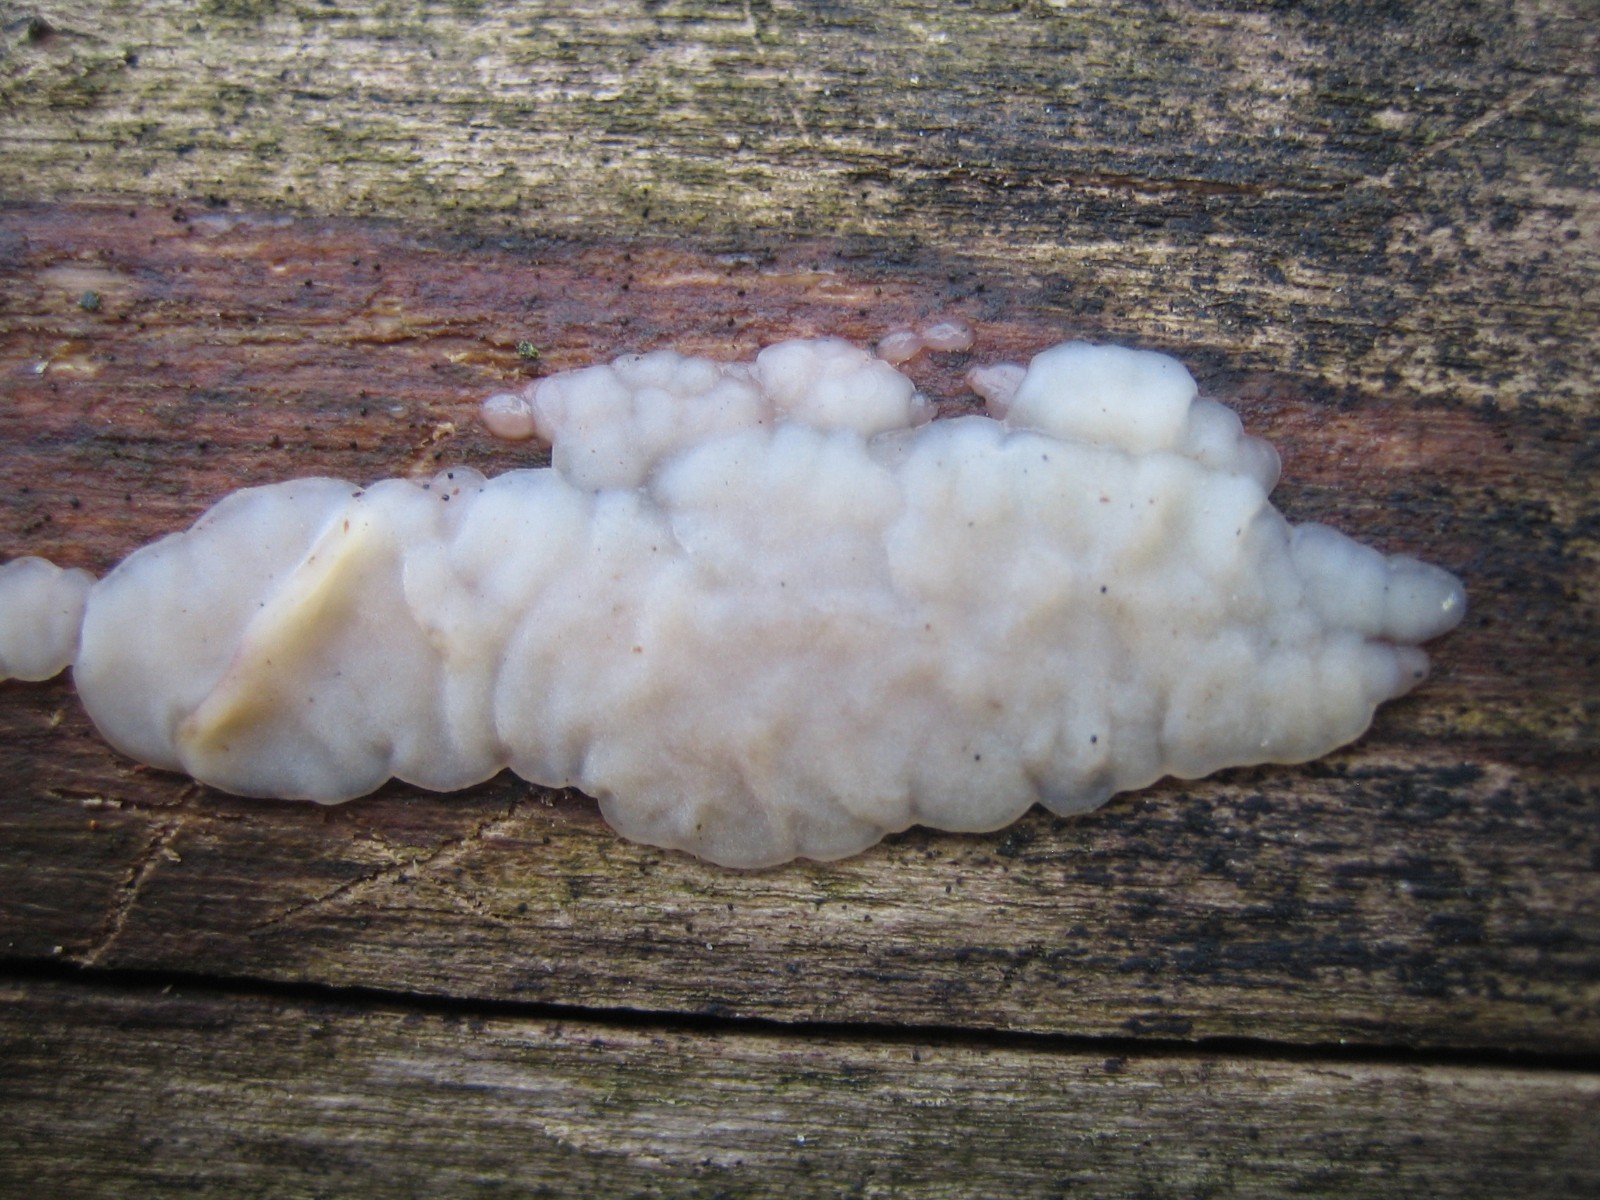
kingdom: Fungi
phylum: Basidiomycota
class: Agaricomycetes
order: Auriculariales
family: Auriculariaceae
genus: Exidia
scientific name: Exidia thuretiana
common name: hvidlig bævretop
